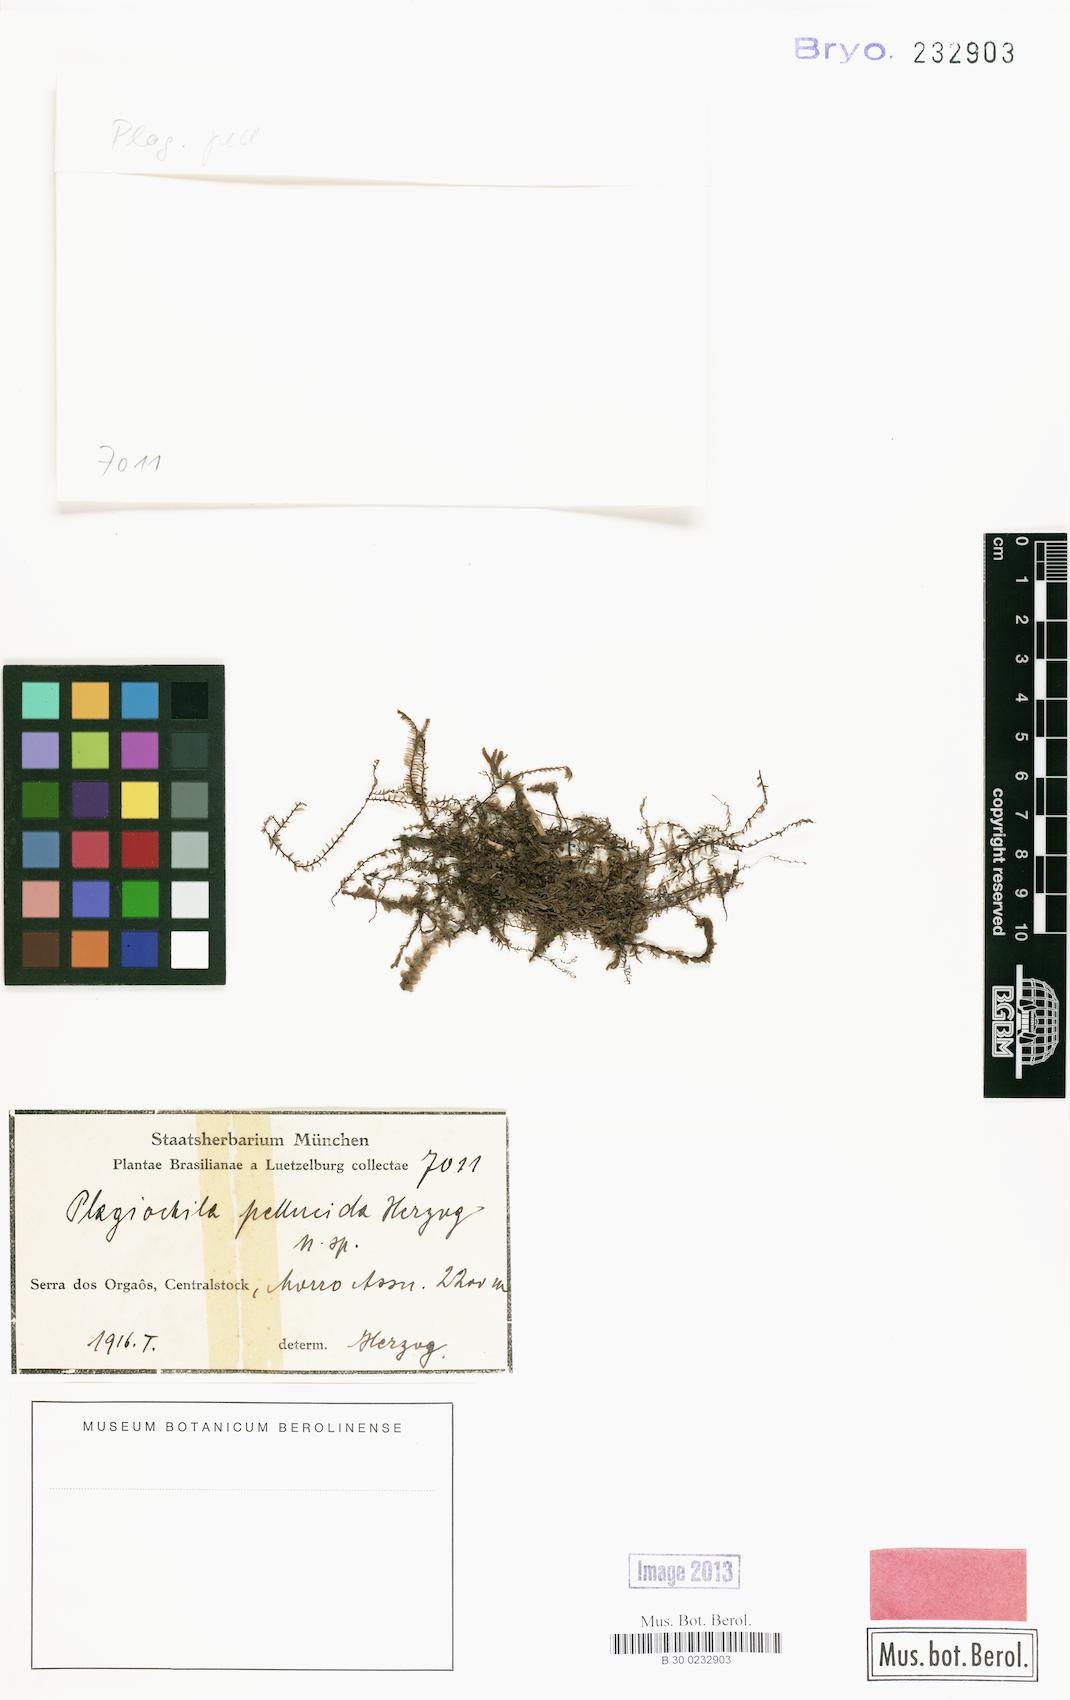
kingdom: Plantae
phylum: Marchantiophyta
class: Jungermanniopsida
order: Jungermanniales
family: Plagiochilaceae
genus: Plagiochila
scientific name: Plagiochila pellucida
